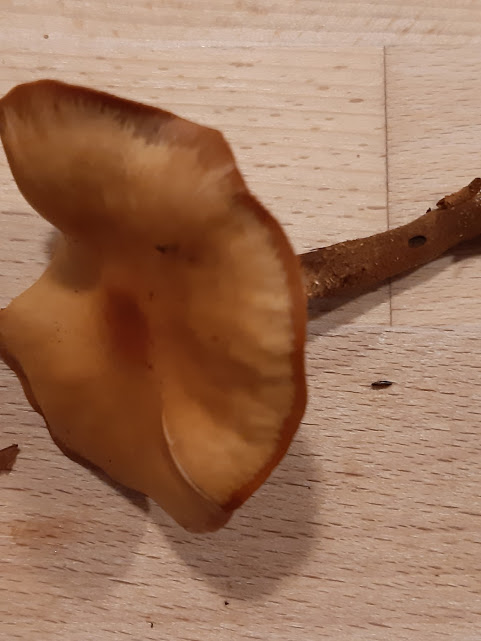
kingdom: Fungi
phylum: Basidiomycota
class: Agaricomycetes
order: Agaricales
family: Strophariaceae
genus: Kuehneromyces
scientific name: Kuehneromyces mutabilis
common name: foranderlig skælhat
